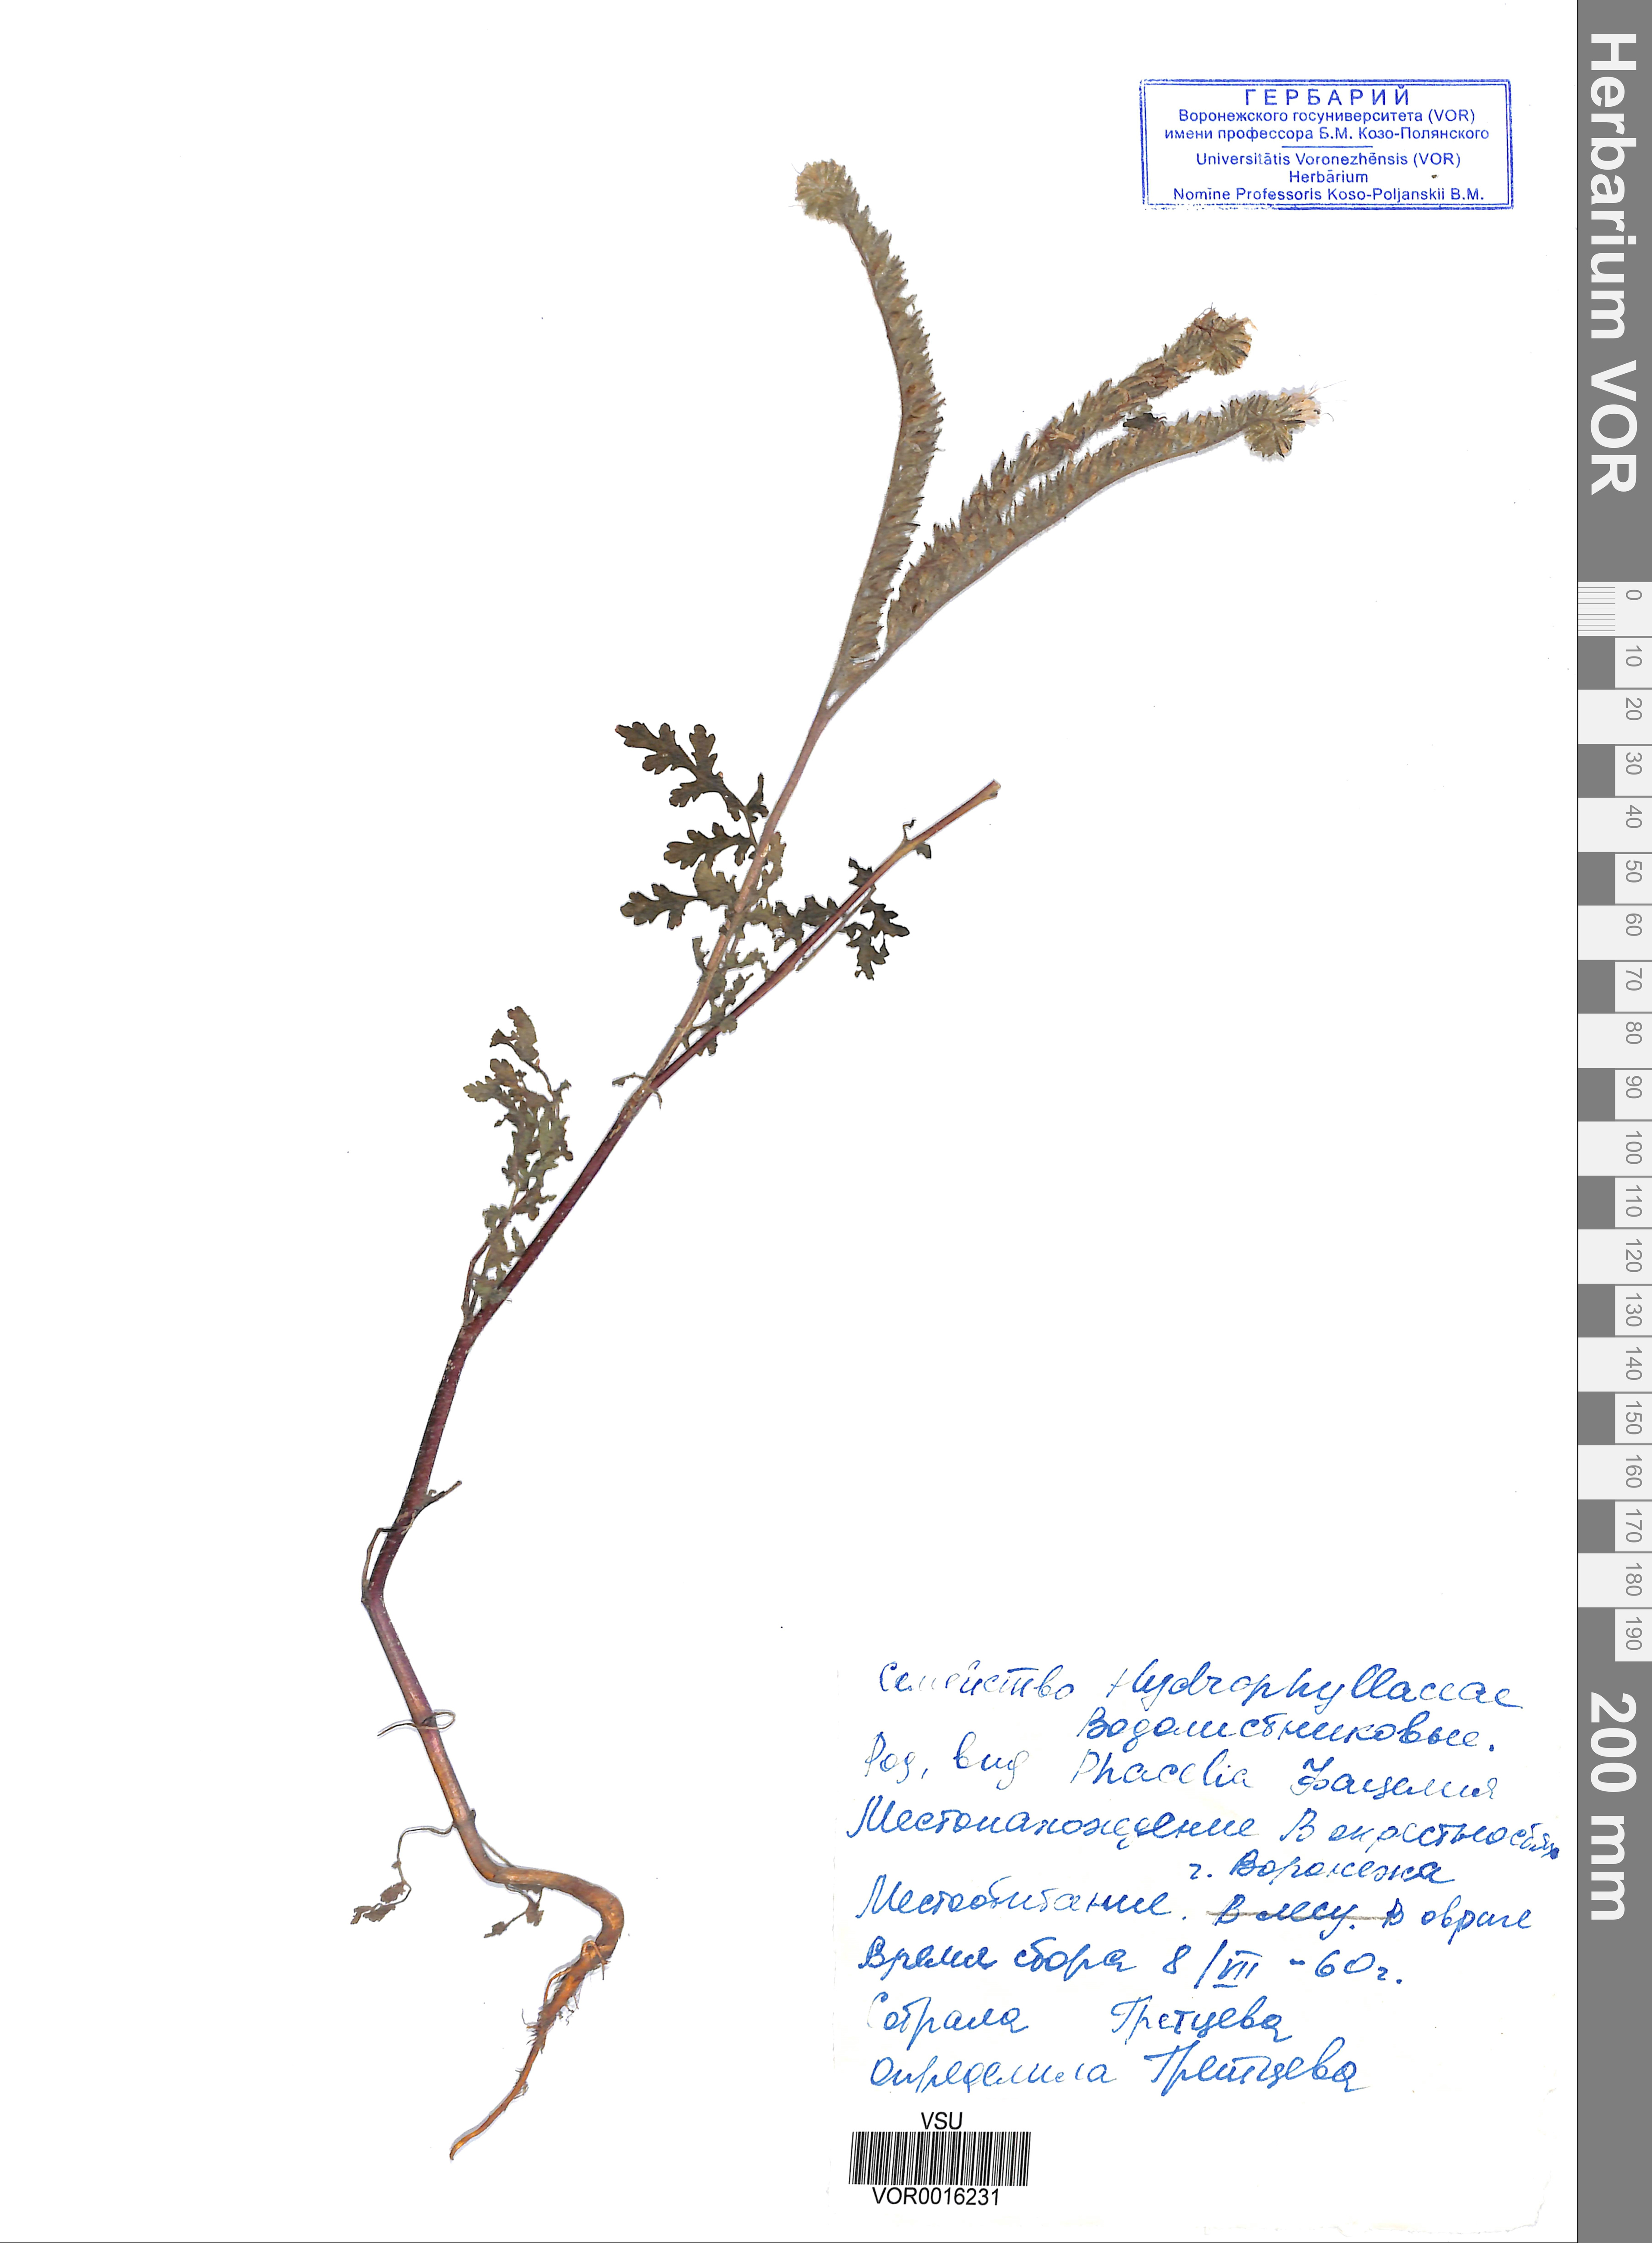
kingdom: Plantae
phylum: Tracheophyta
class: Magnoliopsida
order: Boraginales
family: Hydrophyllaceae
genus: Phacelia
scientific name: Phacelia tanacetifolia
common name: Phacelia
